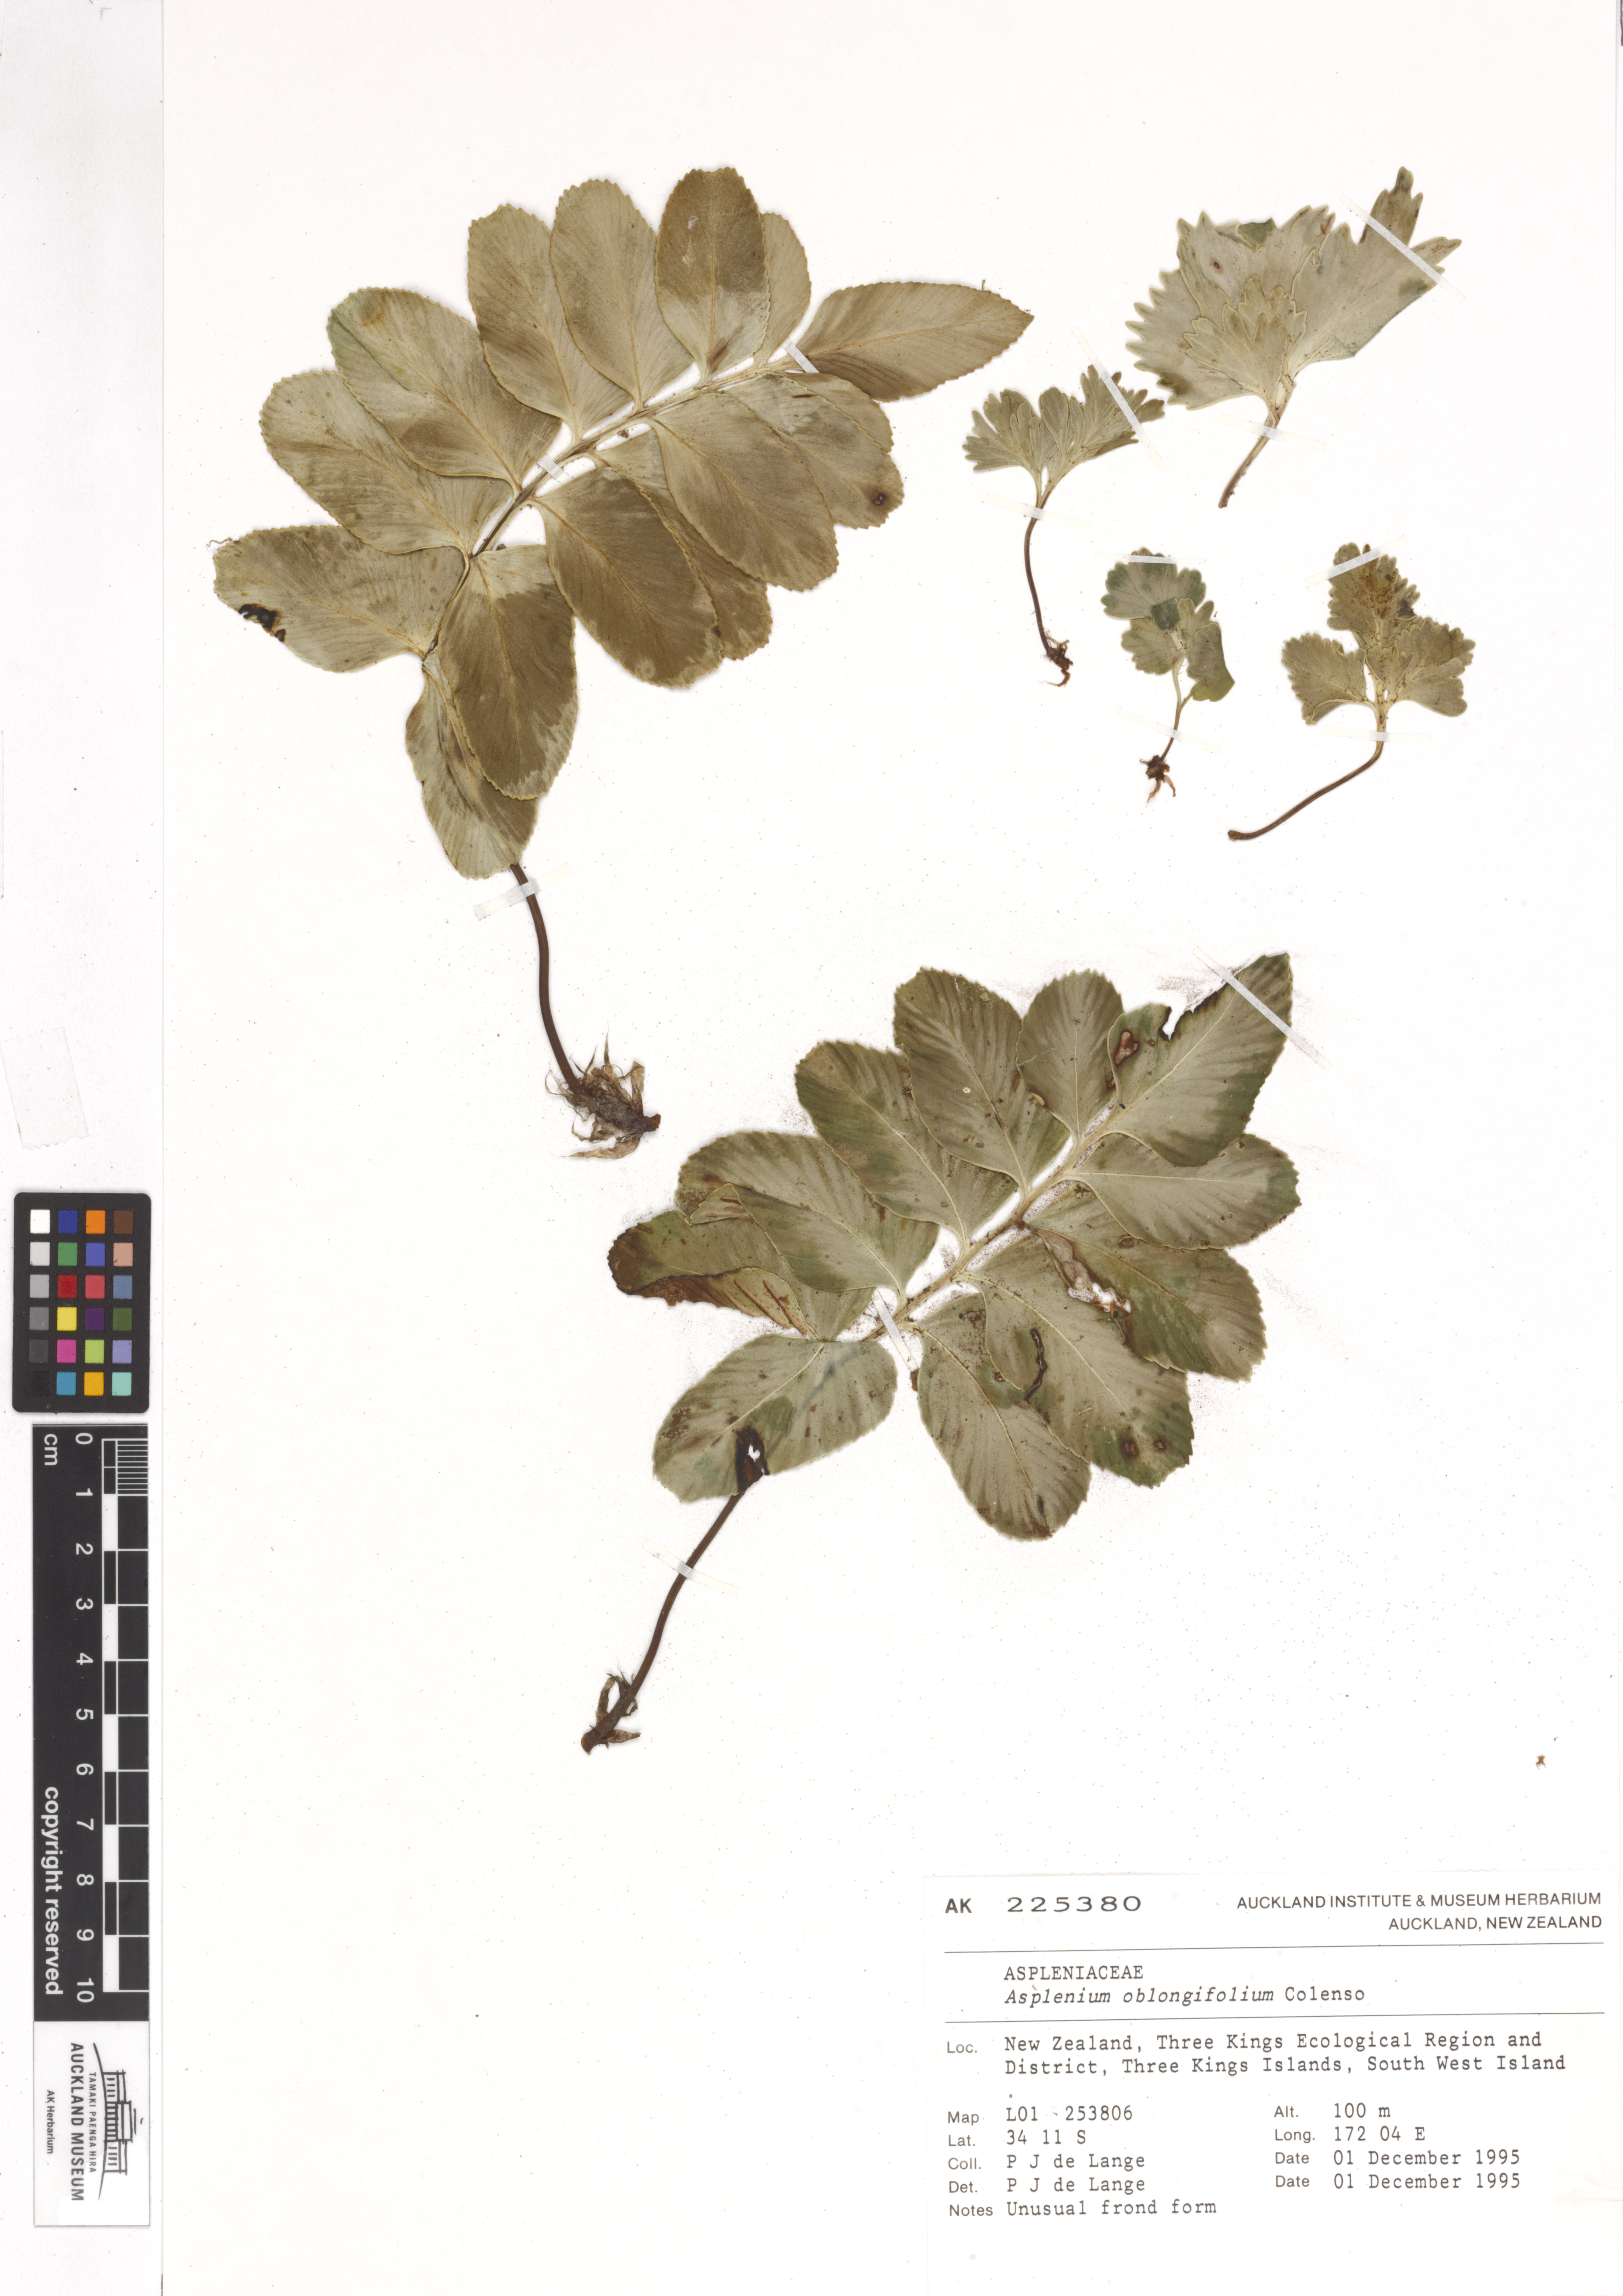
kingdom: Plantae
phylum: Tracheophyta
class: Polypodiopsida
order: Polypodiales
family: Aspleniaceae
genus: Asplenium
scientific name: Asplenium oblongifolium
